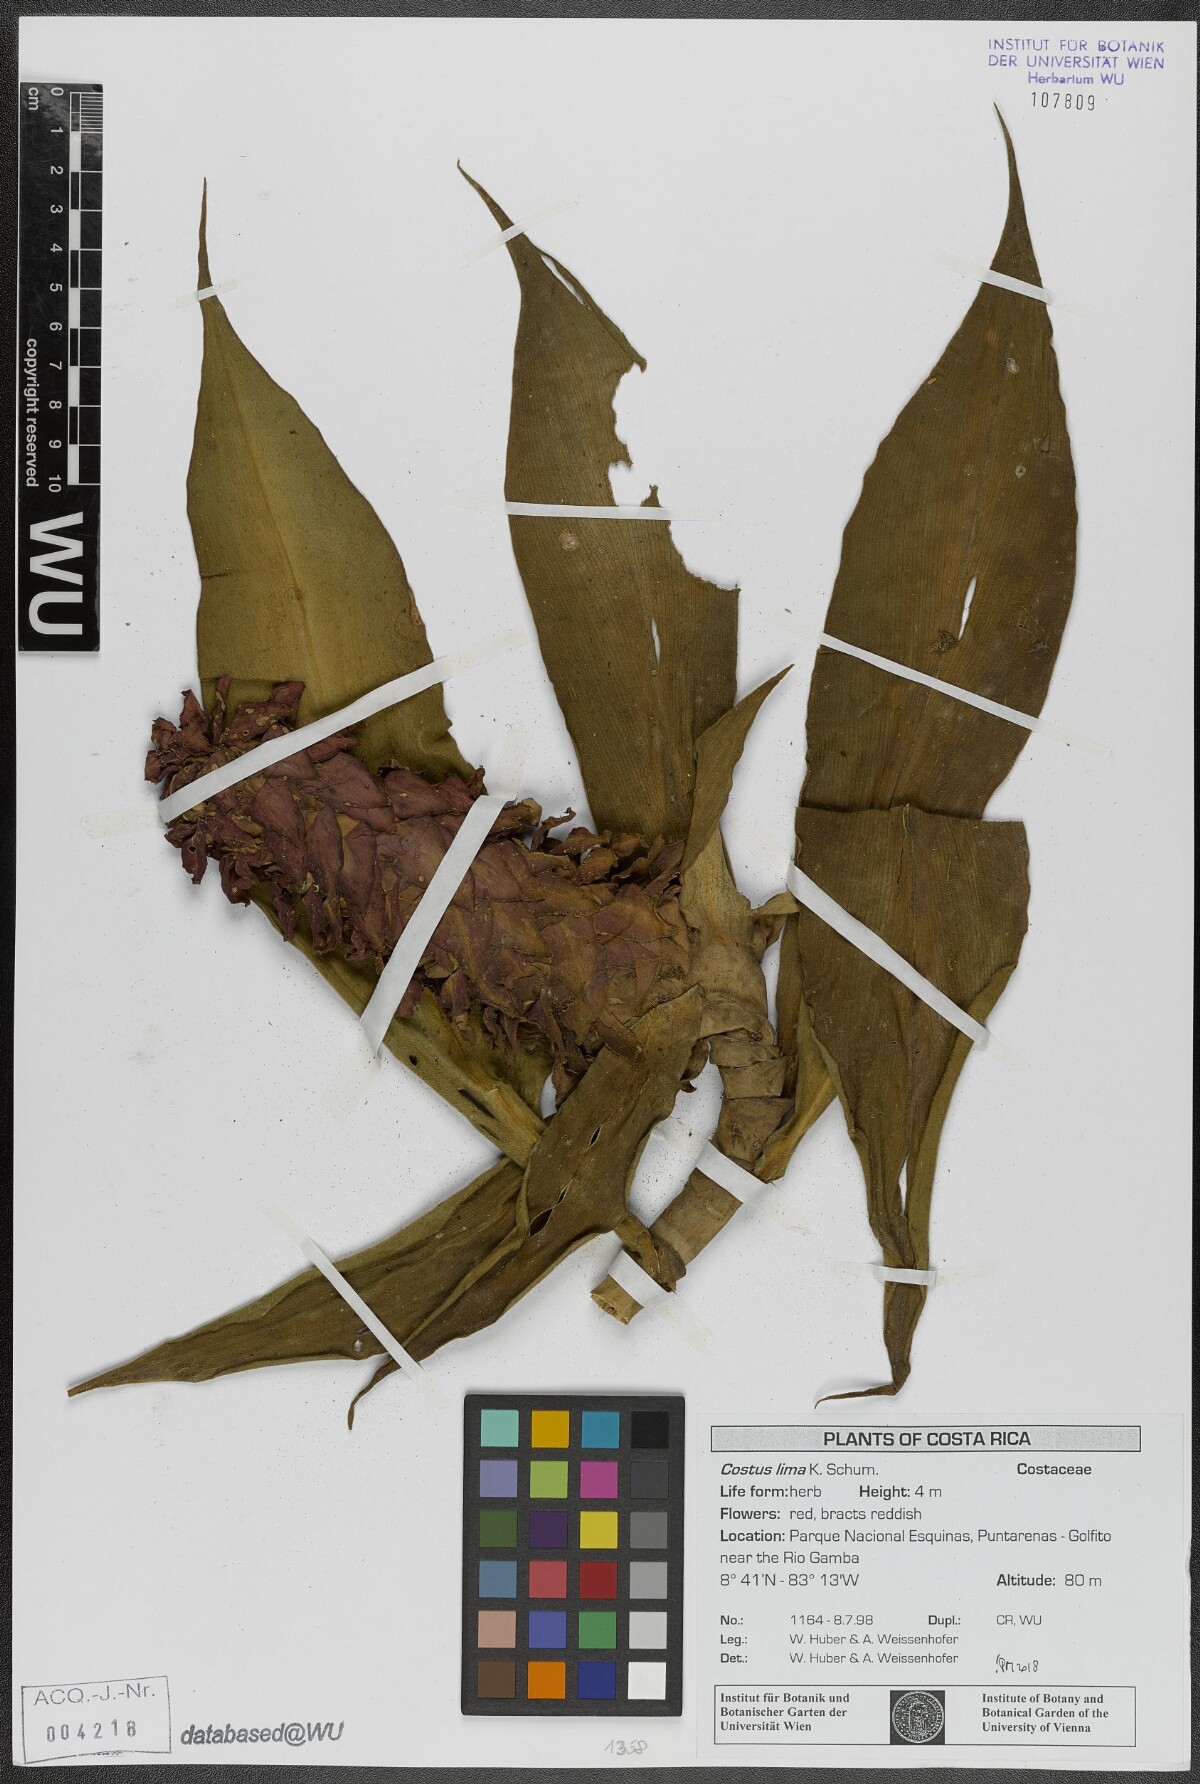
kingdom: Plantae
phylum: Tracheophyta
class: Liliopsida
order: Zingiberales
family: Costaceae
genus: Costus
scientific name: Costus lima
